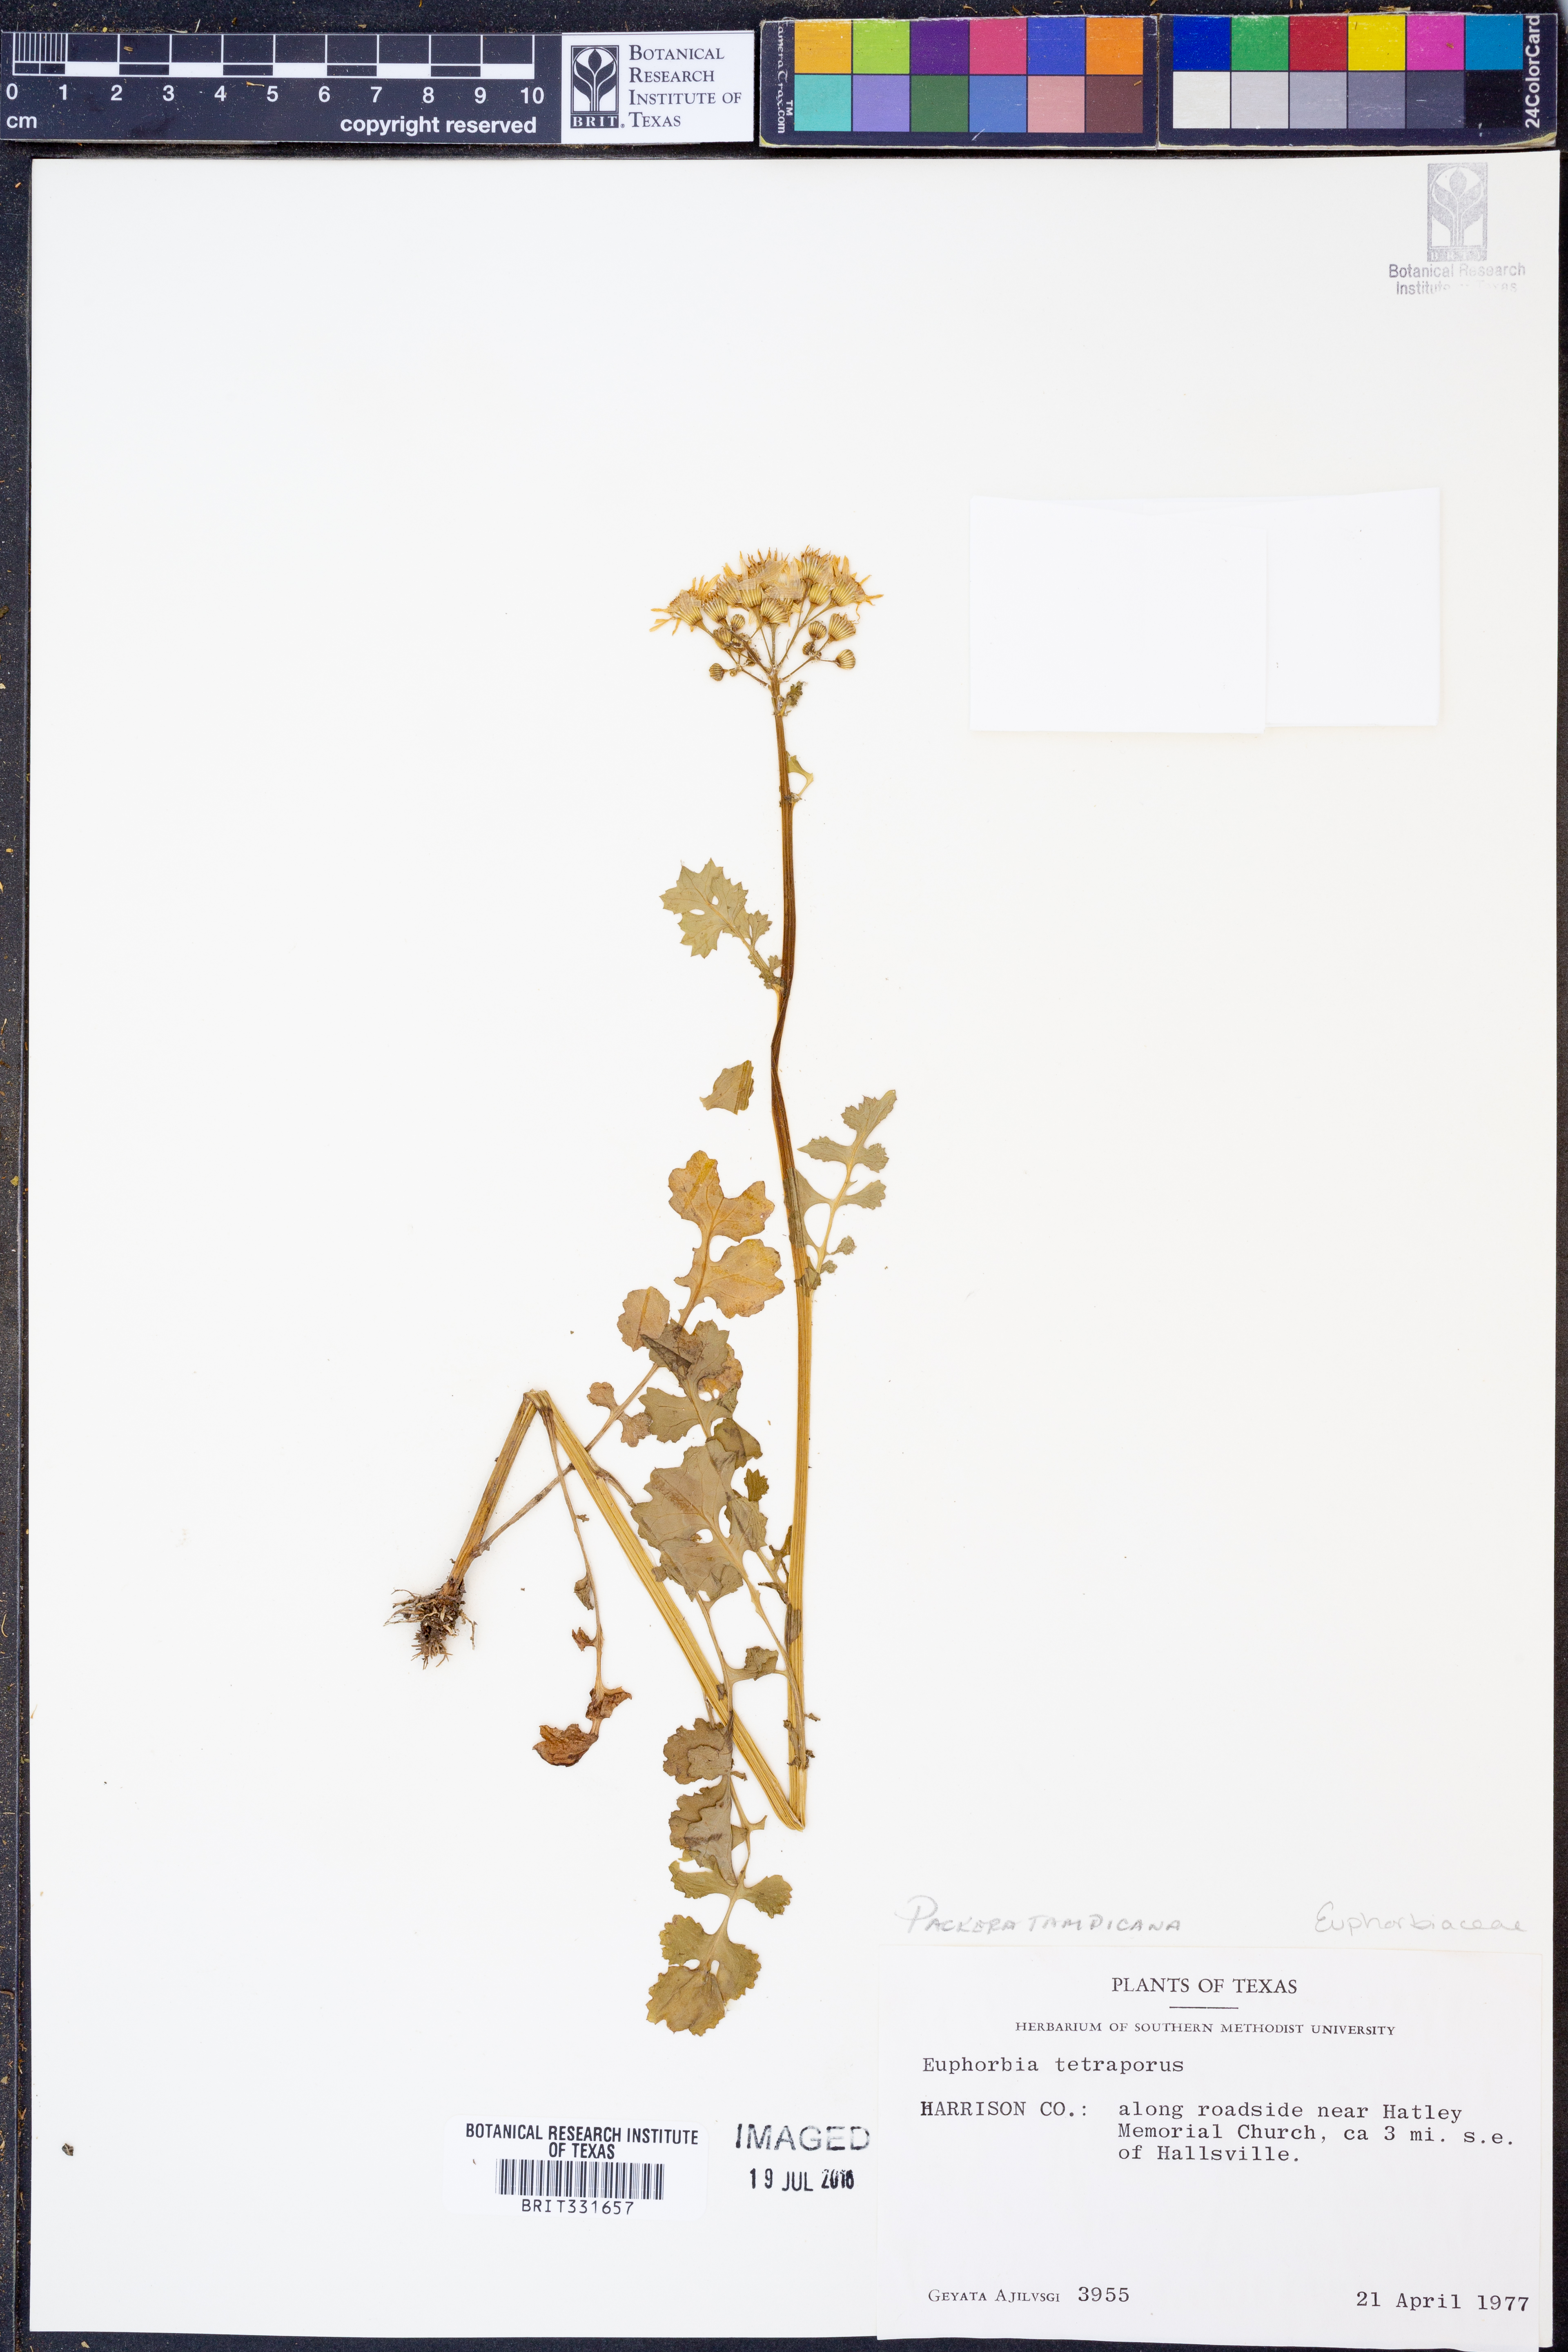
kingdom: Plantae
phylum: Tracheophyta
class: Magnoliopsida
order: Asterales
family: Asteraceae
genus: Packera
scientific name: Packera tampicana
